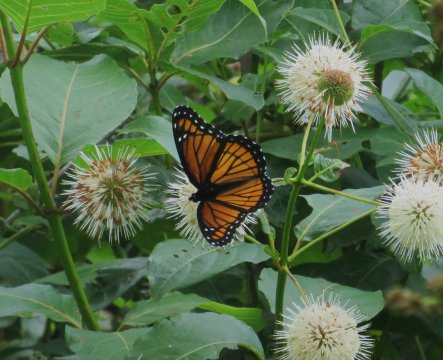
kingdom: Animalia
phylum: Arthropoda
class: Insecta
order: Lepidoptera
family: Nymphalidae
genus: Limenitis
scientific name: Limenitis archippus
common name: Viceroy
